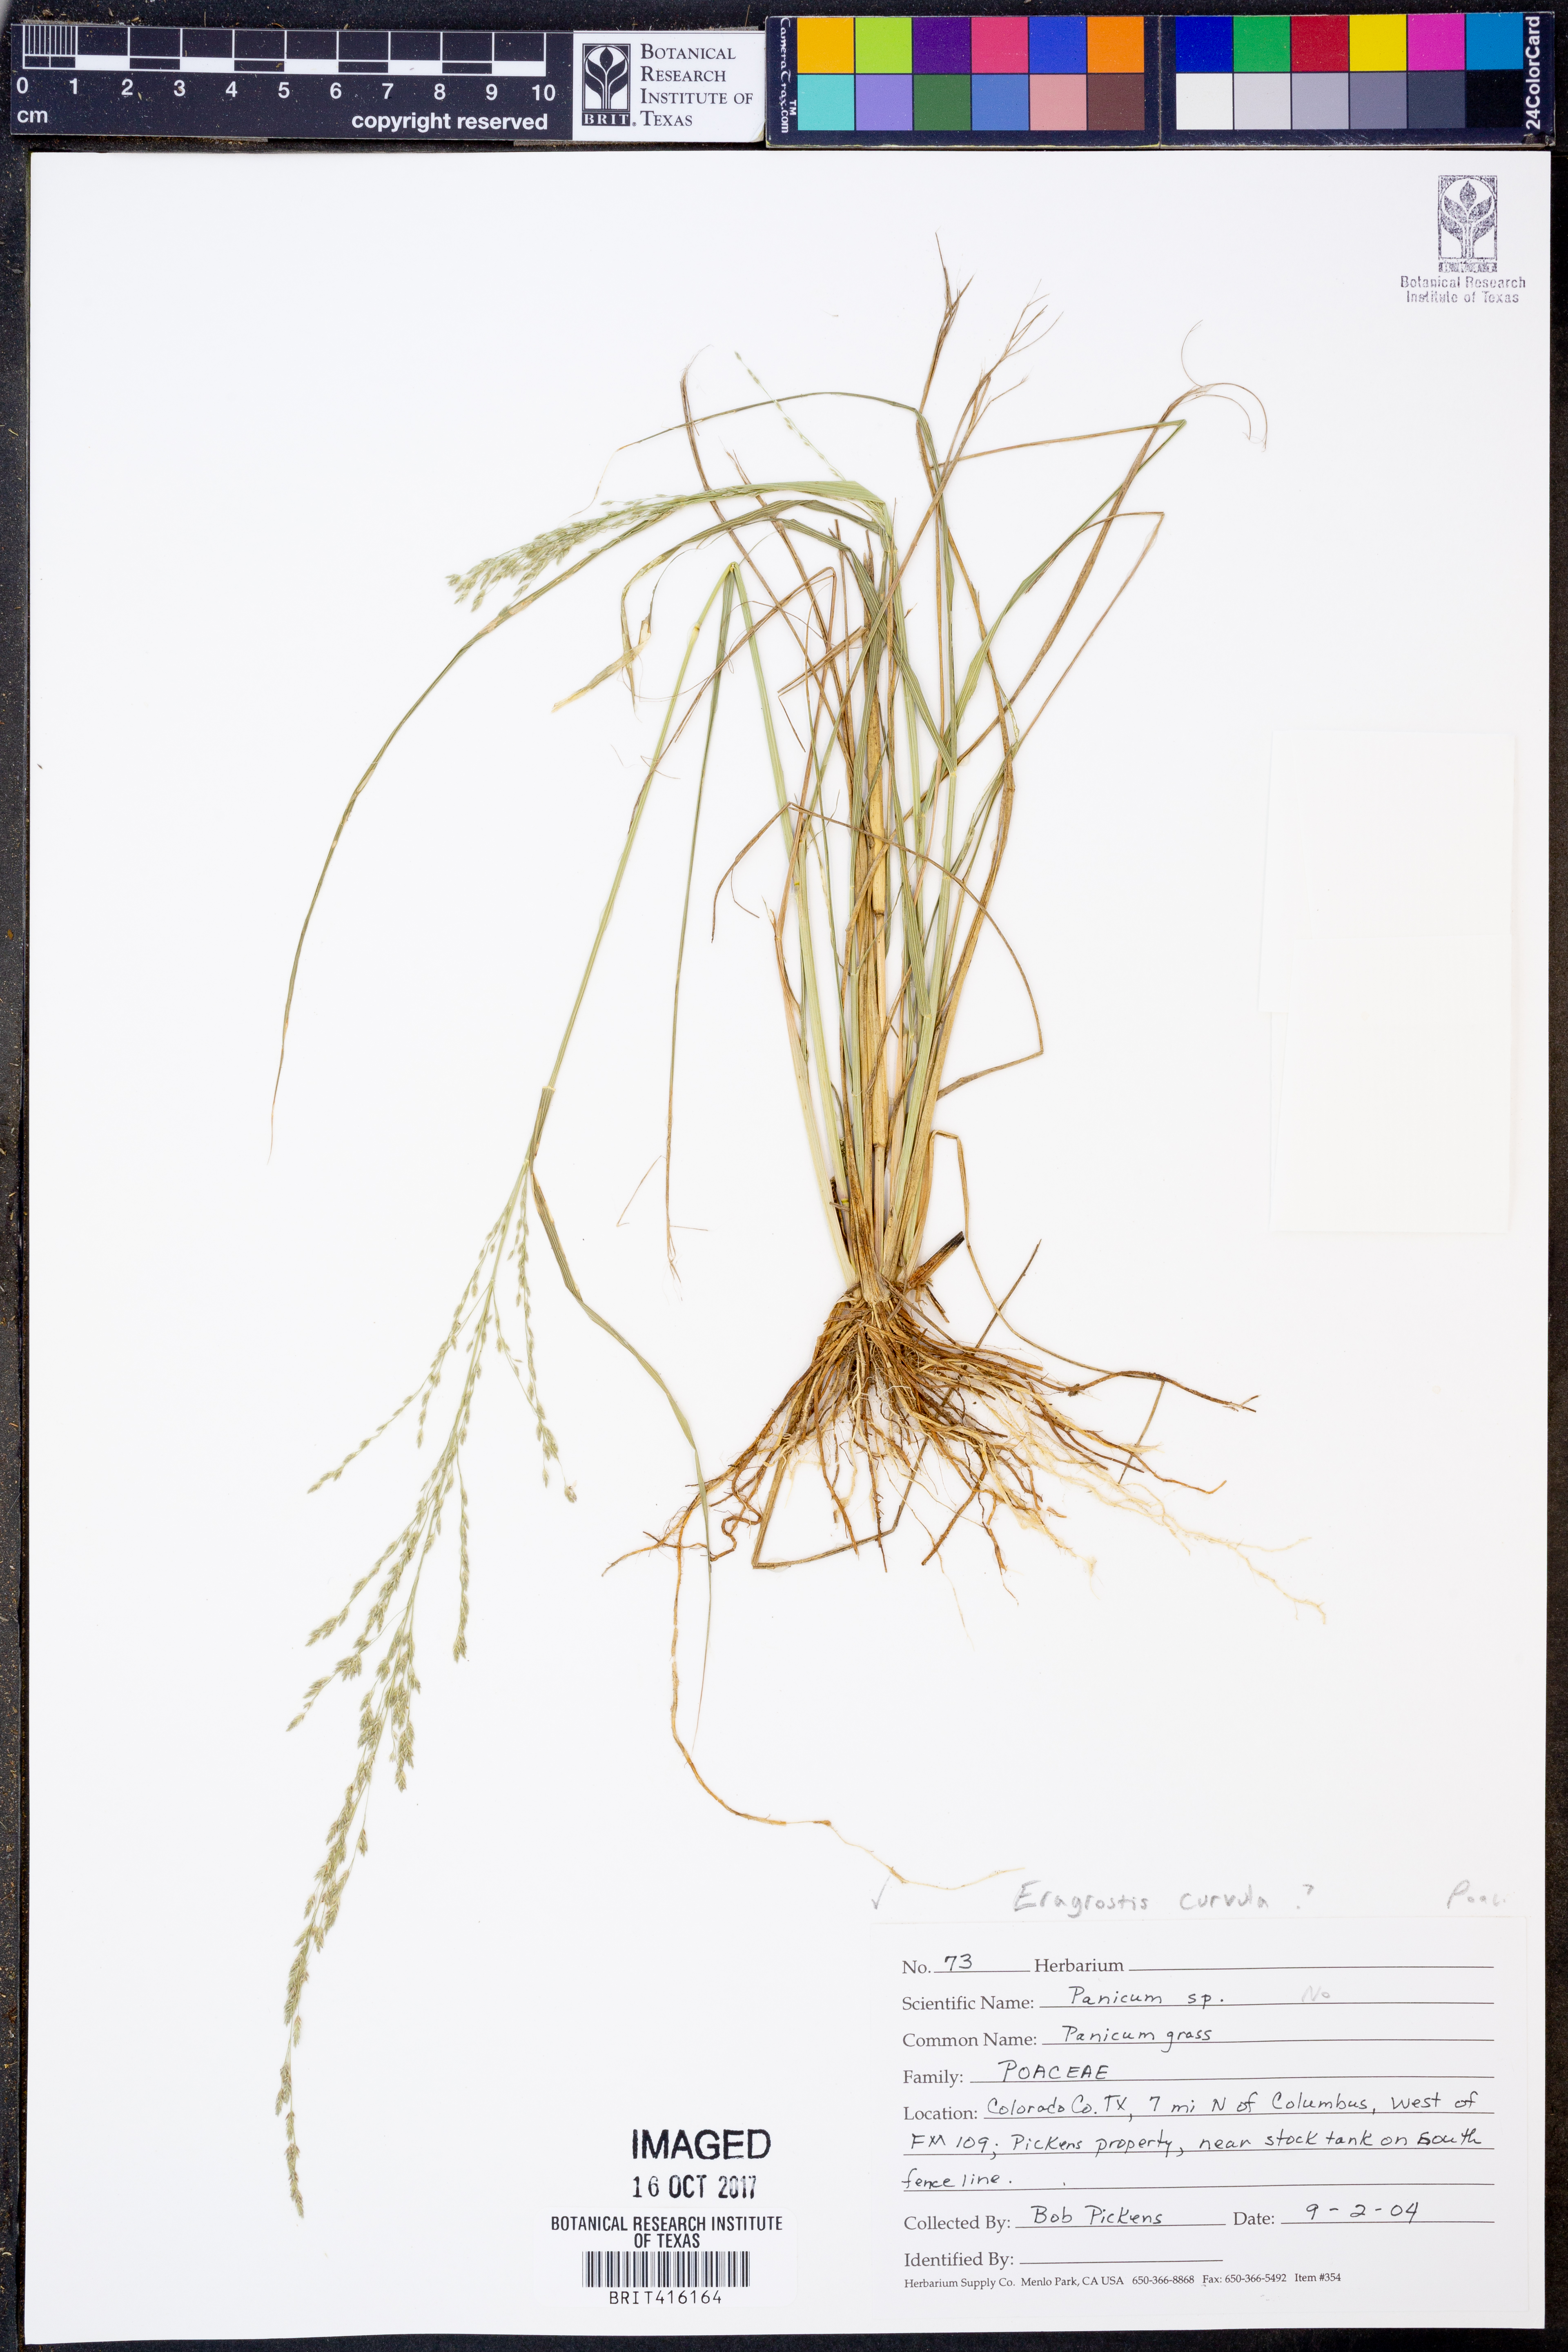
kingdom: Plantae
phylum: Tracheophyta
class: Liliopsida
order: Poales
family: Poaceae
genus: Panicum
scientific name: Panicum
